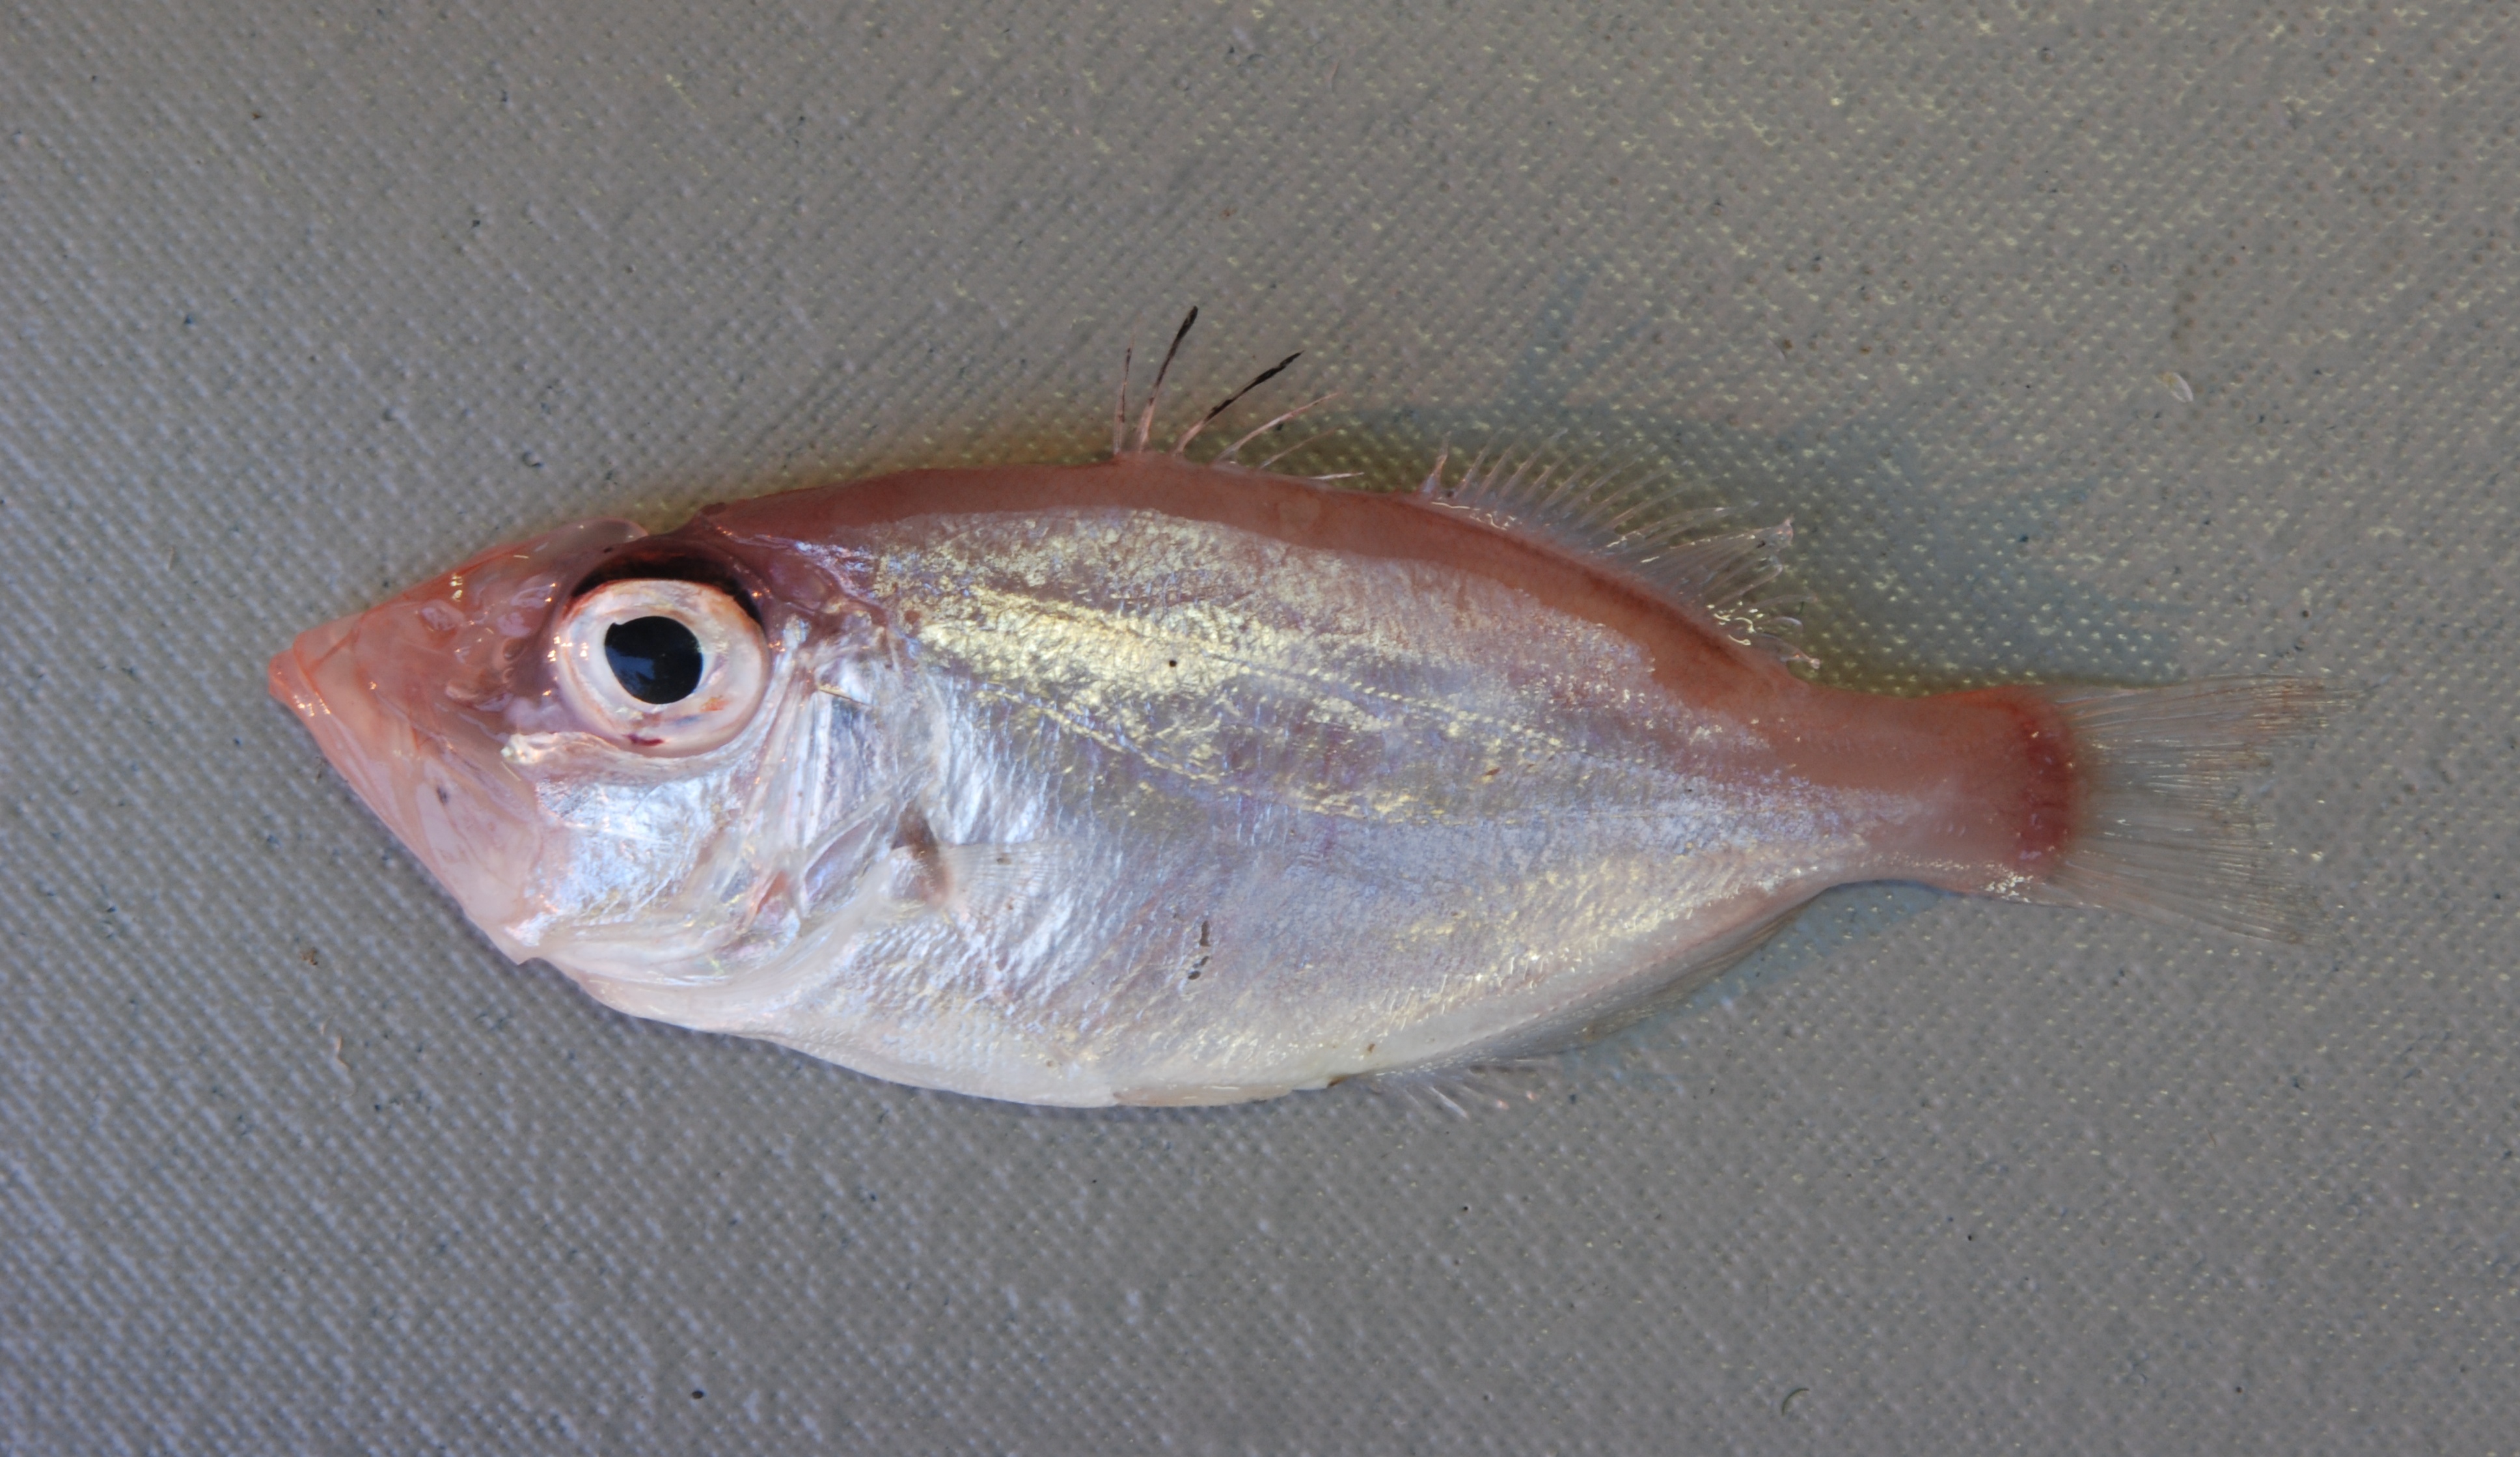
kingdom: Animalia
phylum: Chordata
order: Zeiformes
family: Parazenidae
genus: Parazen
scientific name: Parazen pacificus
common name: Parazen
